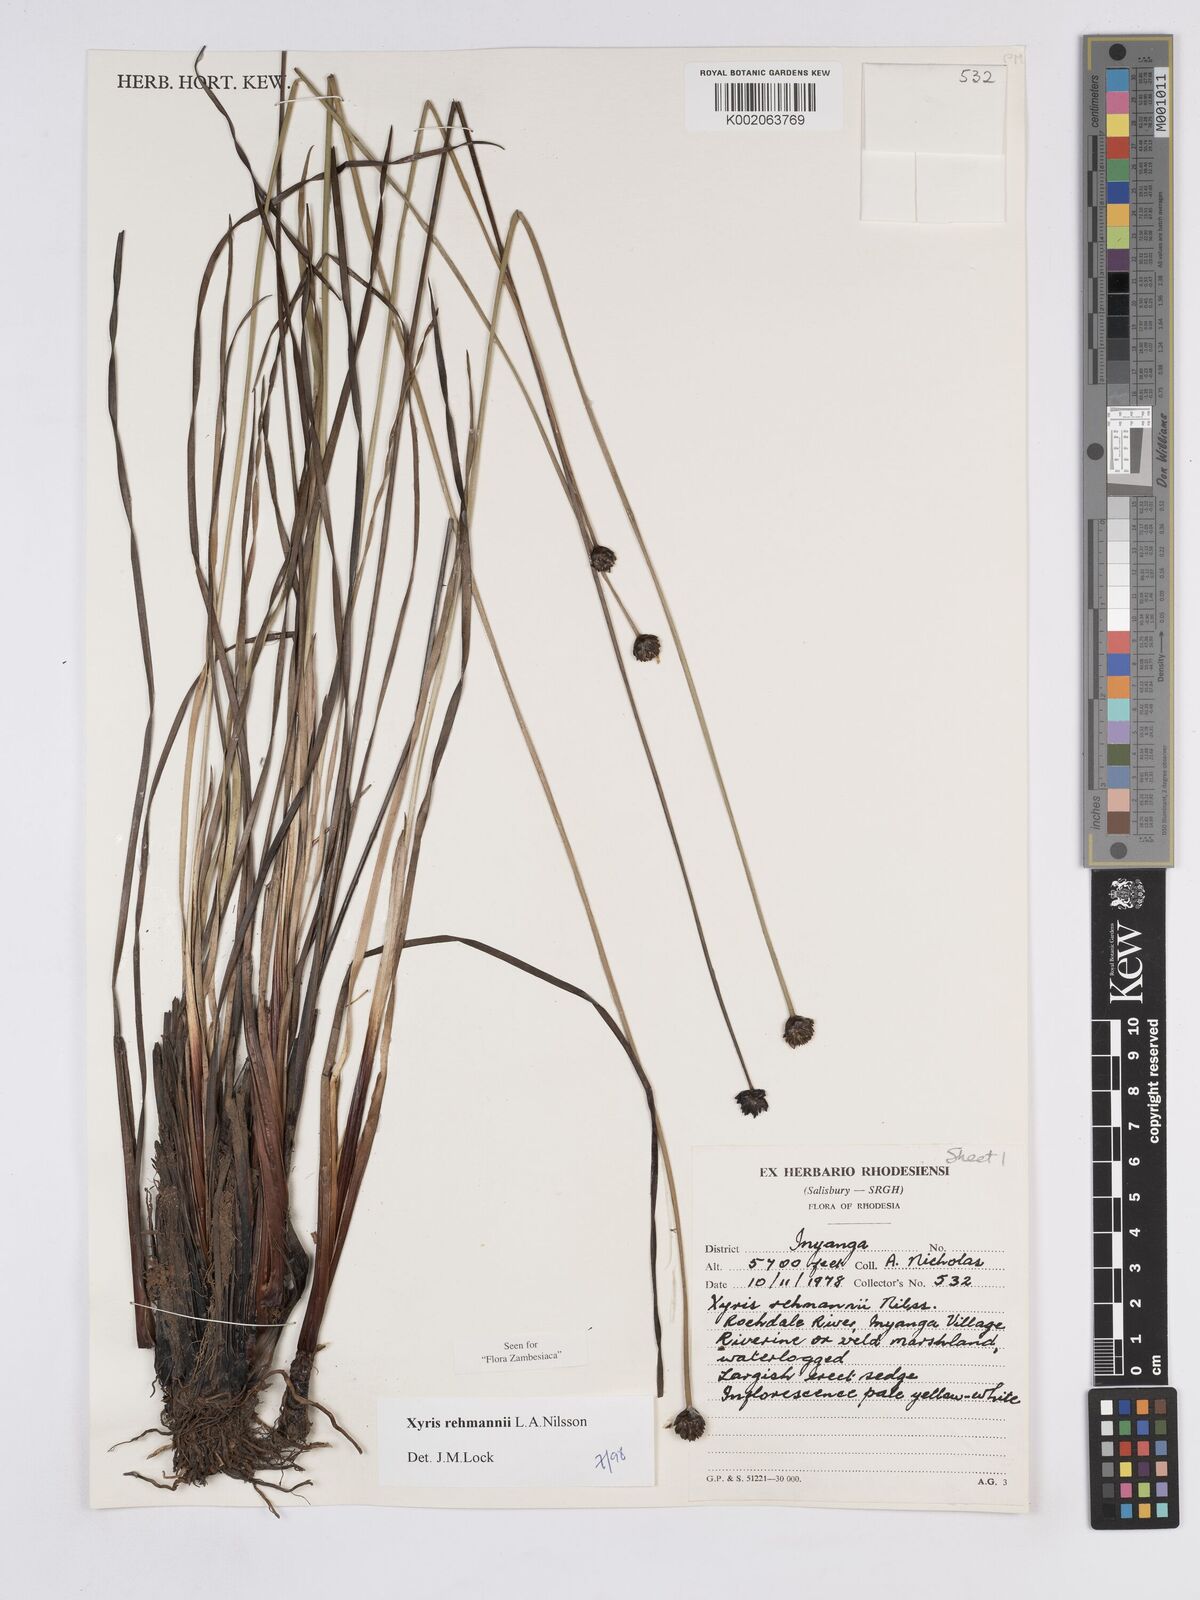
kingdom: Plantae
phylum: Tracheophyta
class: Liliopsida
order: Poales
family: Xyridaceae
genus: Xyris
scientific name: Xyris rehmannii
